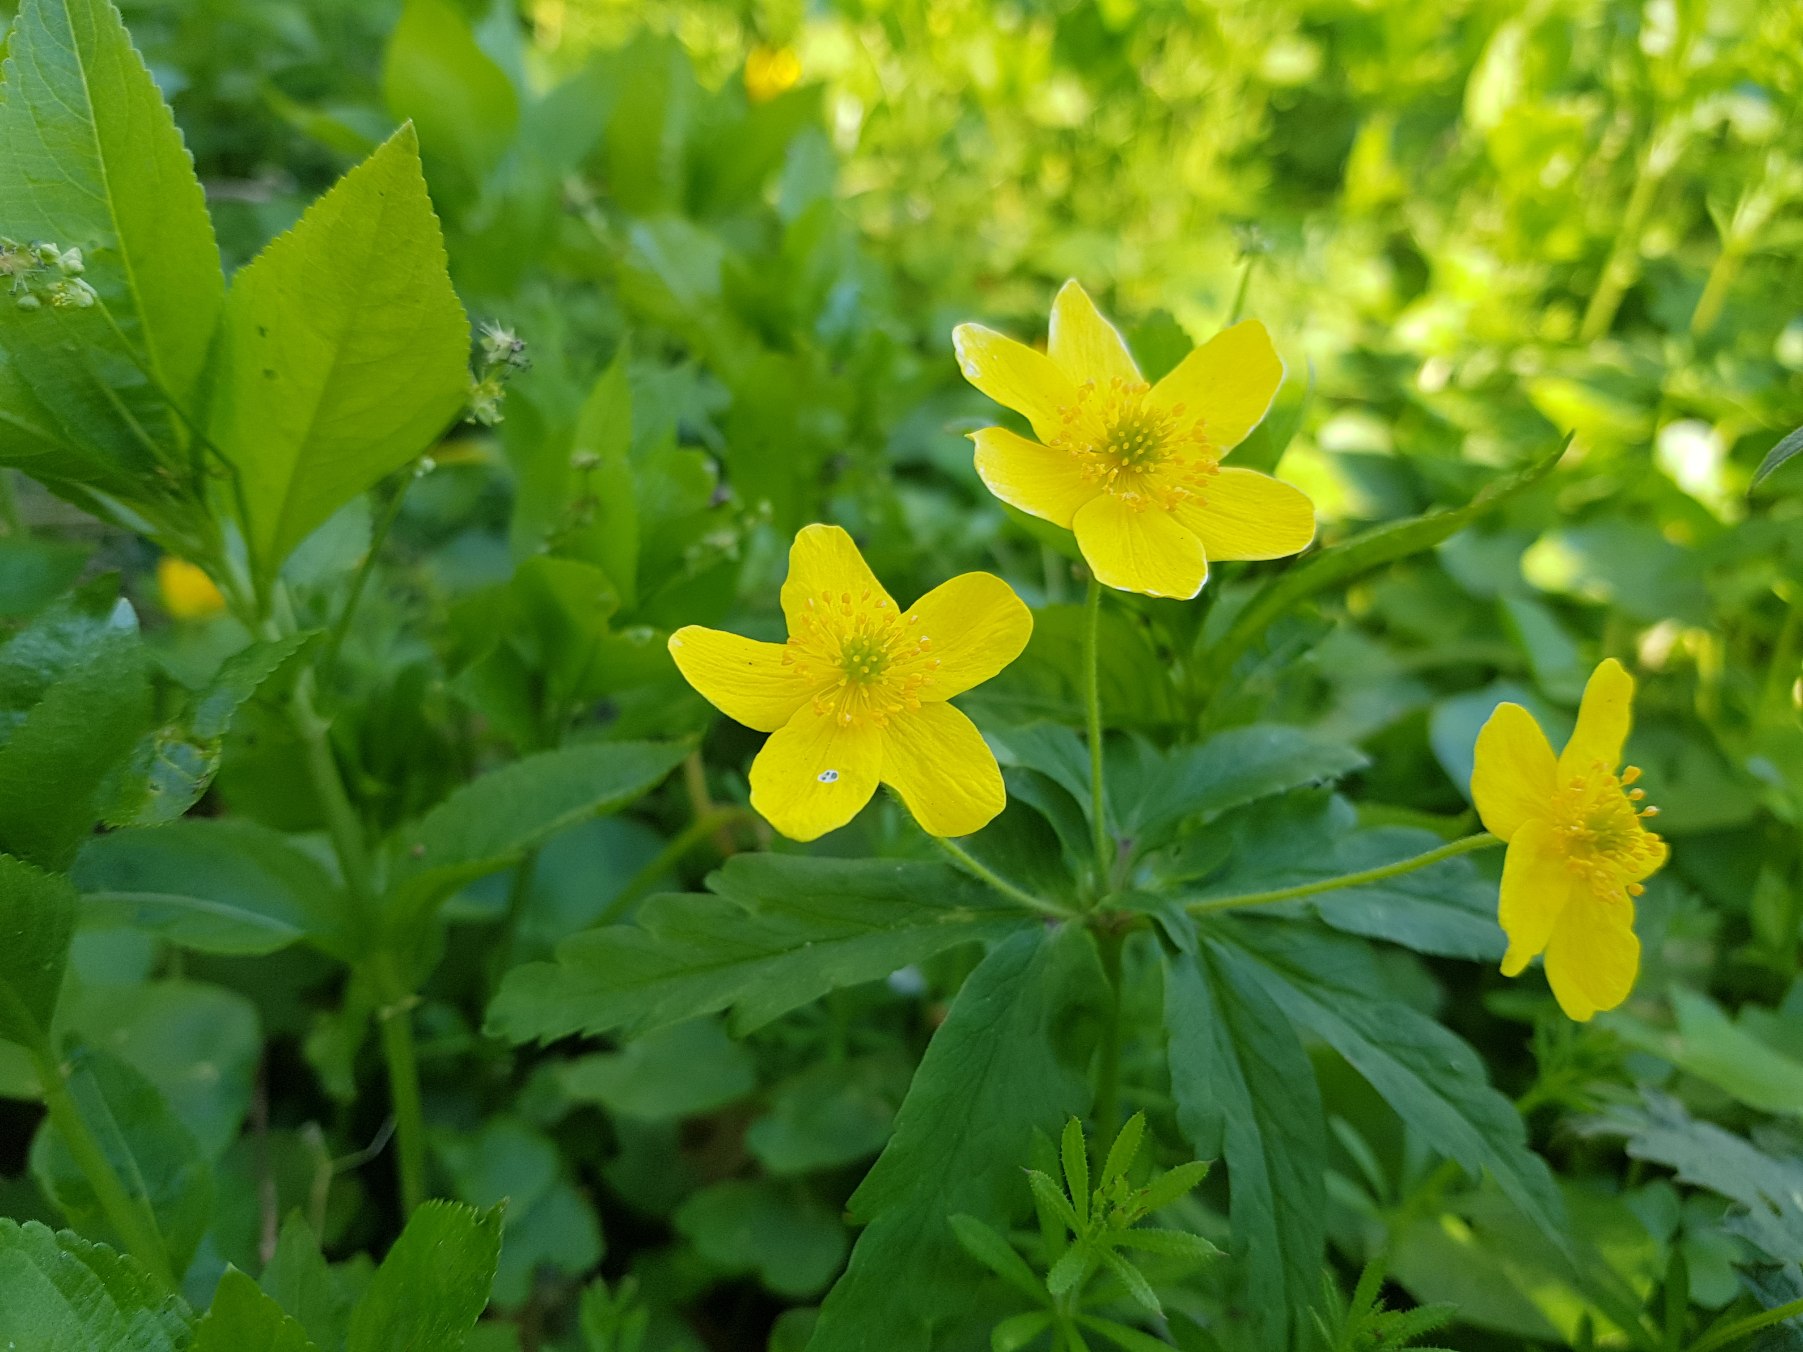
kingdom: Plantae
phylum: Tracheophyta
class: Magnoliopsida
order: Ranunculales
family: Ranunculaceae
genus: Anemone
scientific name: Anemone ranunculoides
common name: Gul anemone
